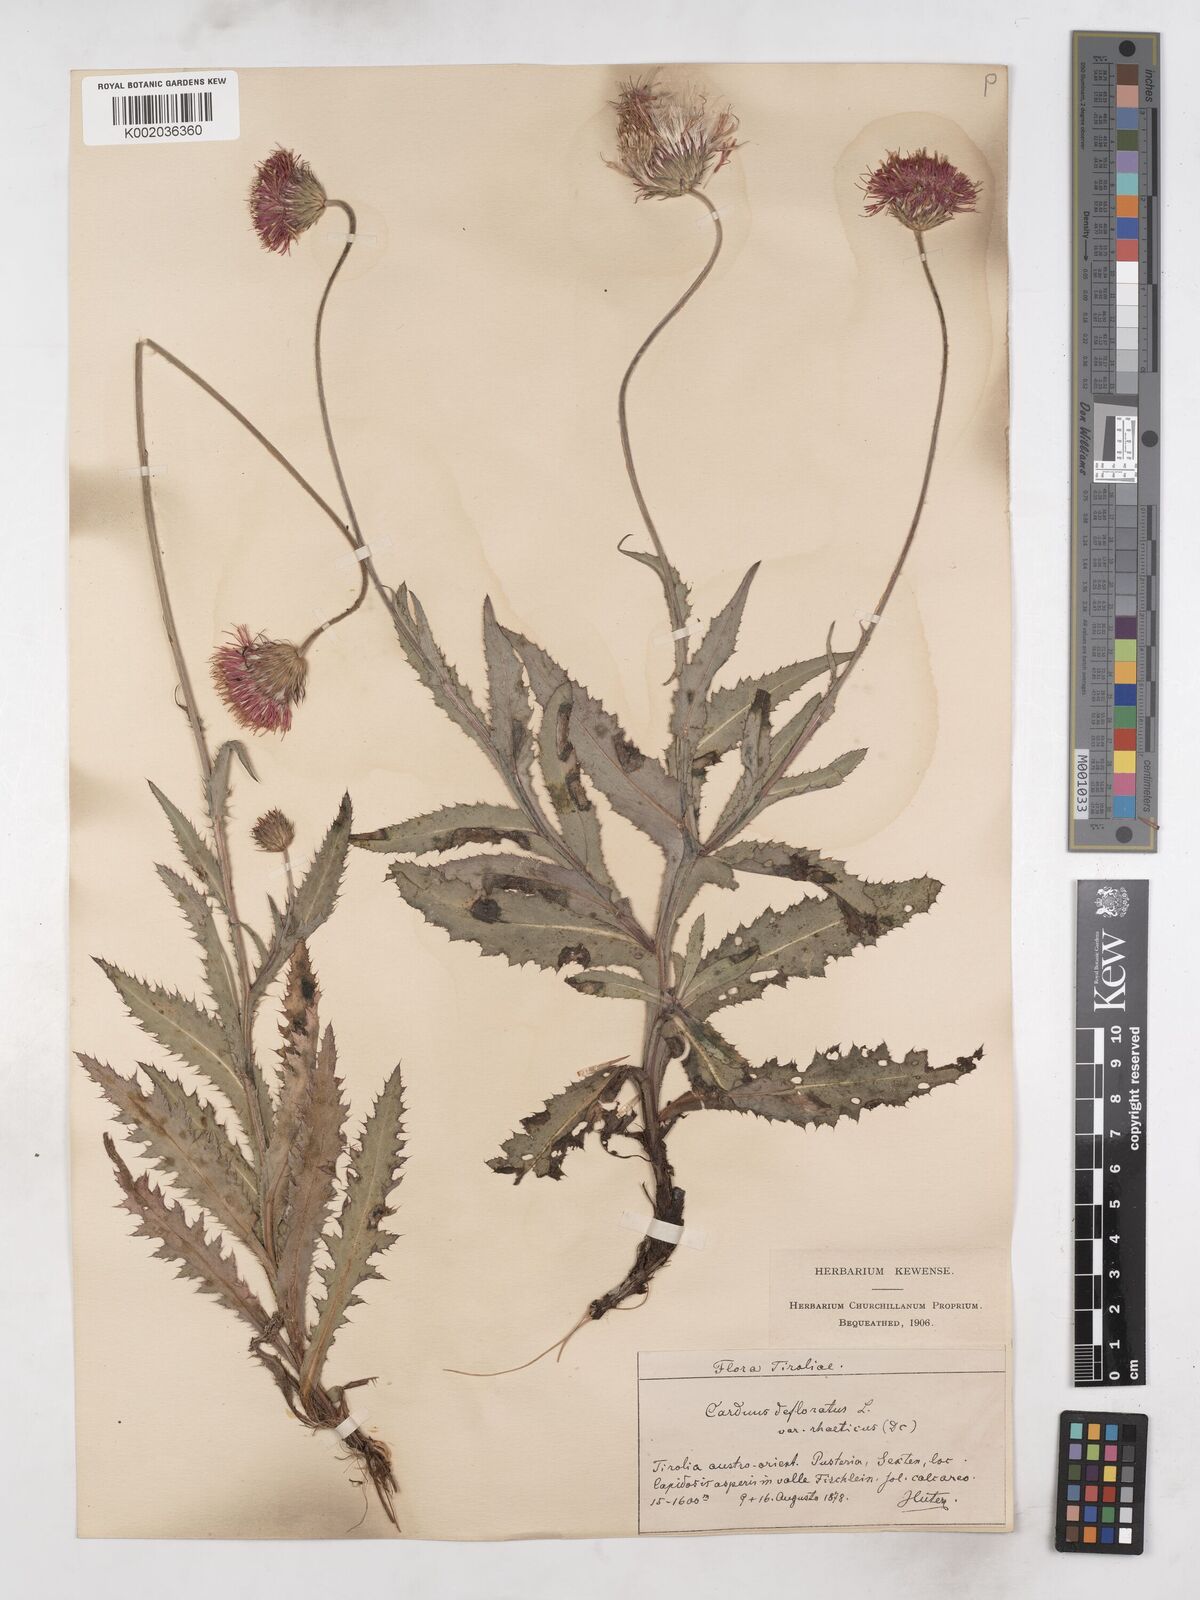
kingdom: Plantae
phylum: Tracheophyta
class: Magnoliopsida
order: Asterales
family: Asteraceae
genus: Carduus
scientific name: Carduus defloratus
